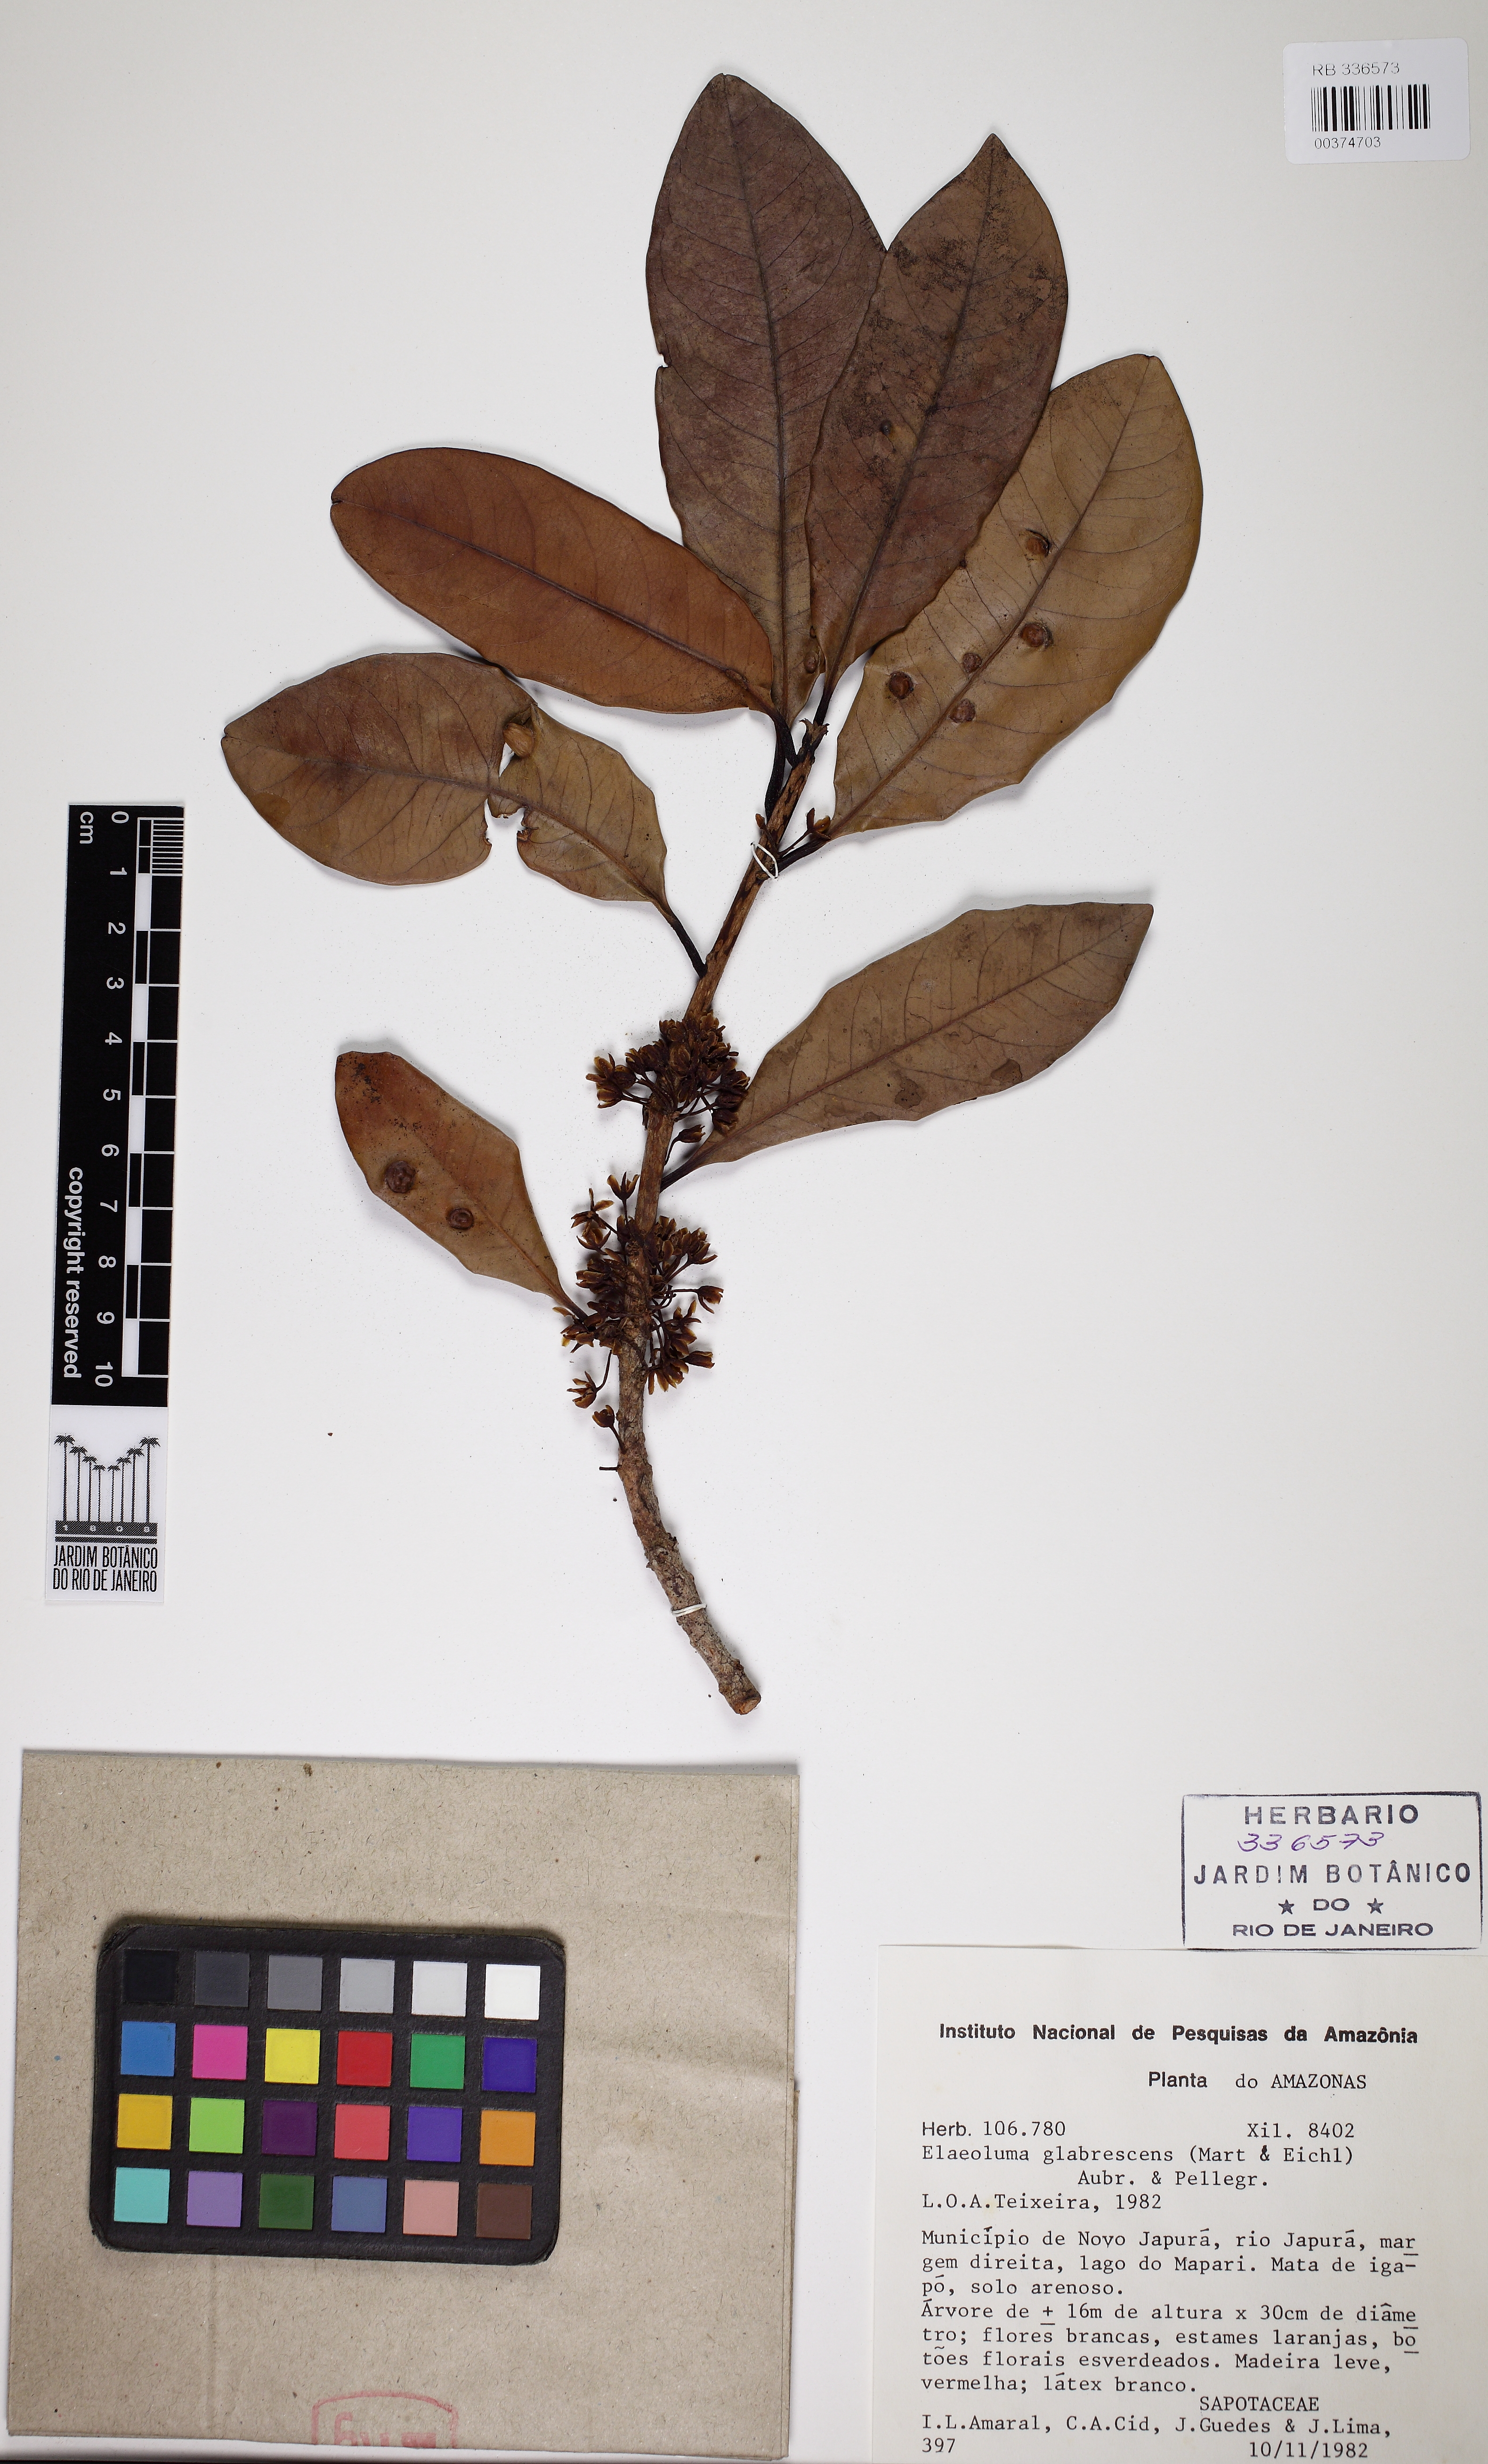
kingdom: Plantae
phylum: Tracheophyta
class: Magnoliopsida
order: Ericales
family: Sapotaceae
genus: Elaeoluma
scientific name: Elaeoluma glabrescens
